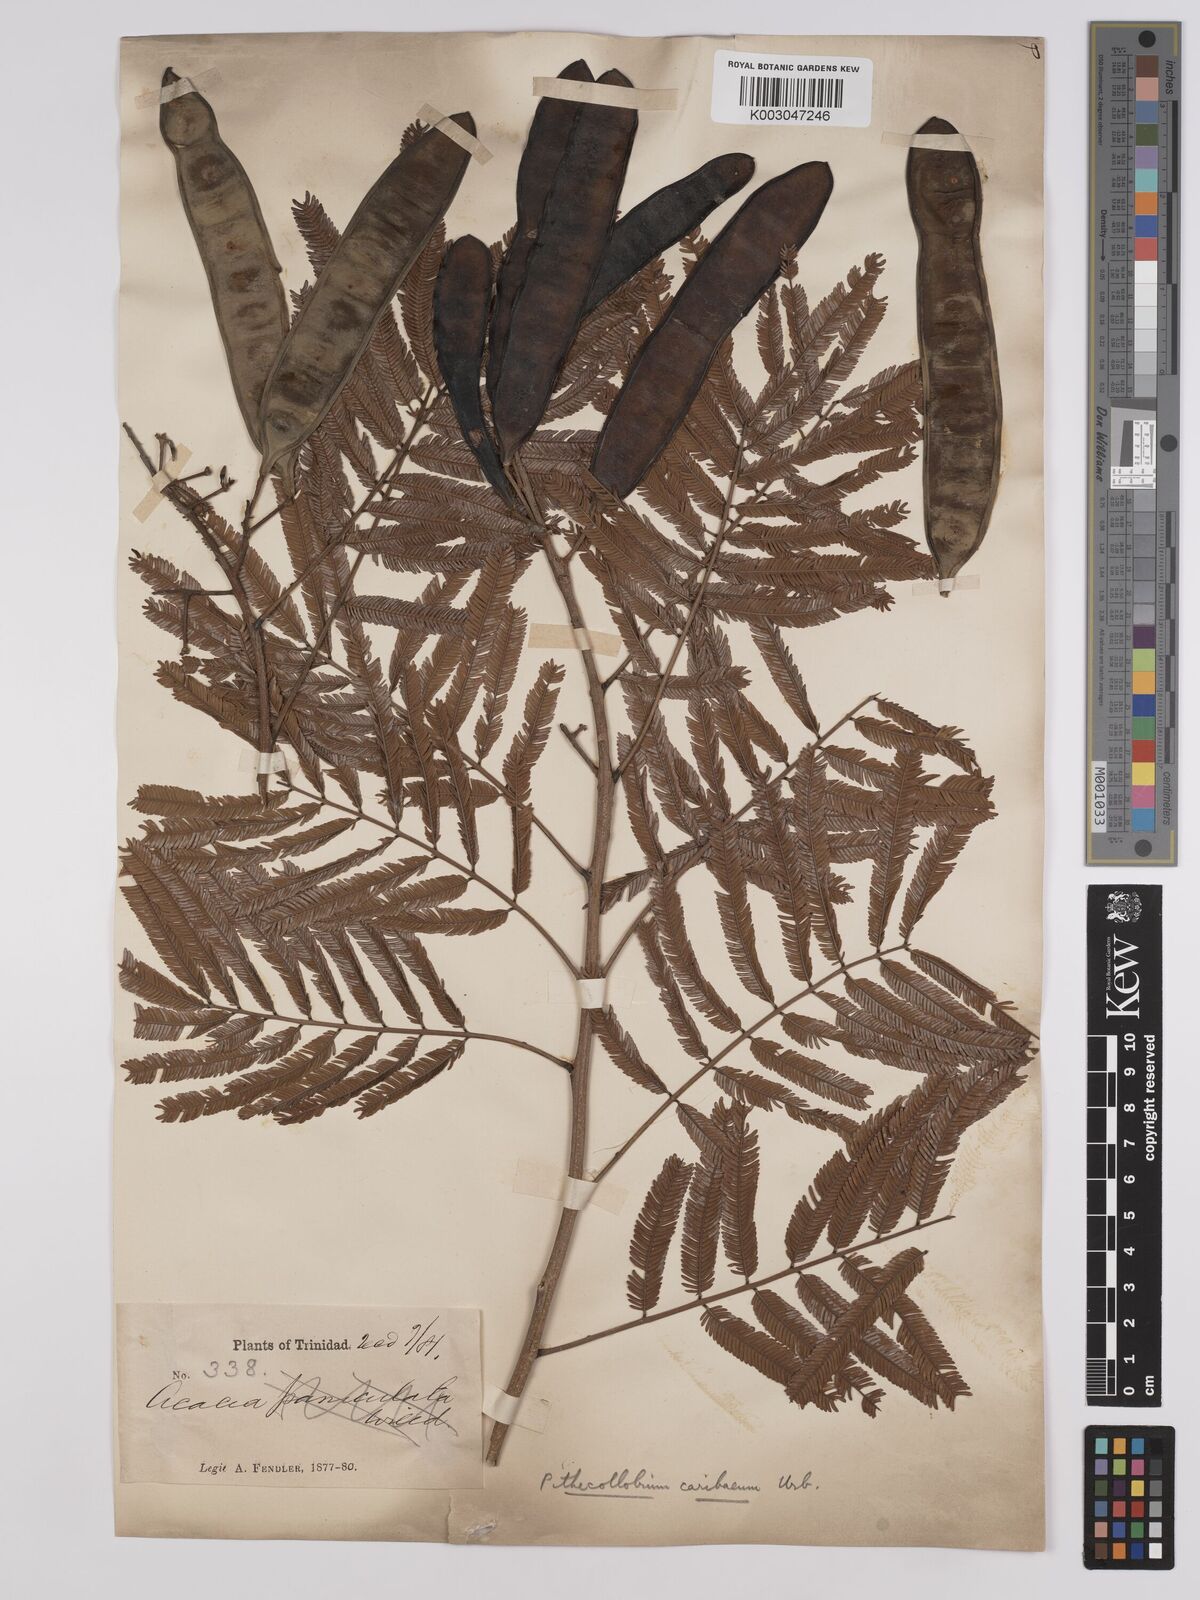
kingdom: Plantae
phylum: Tracheophyta
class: Magnoliopsida
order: Fabales
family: Fabaceae
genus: Albizia
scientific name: Albizia niopoides
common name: Silk tree
